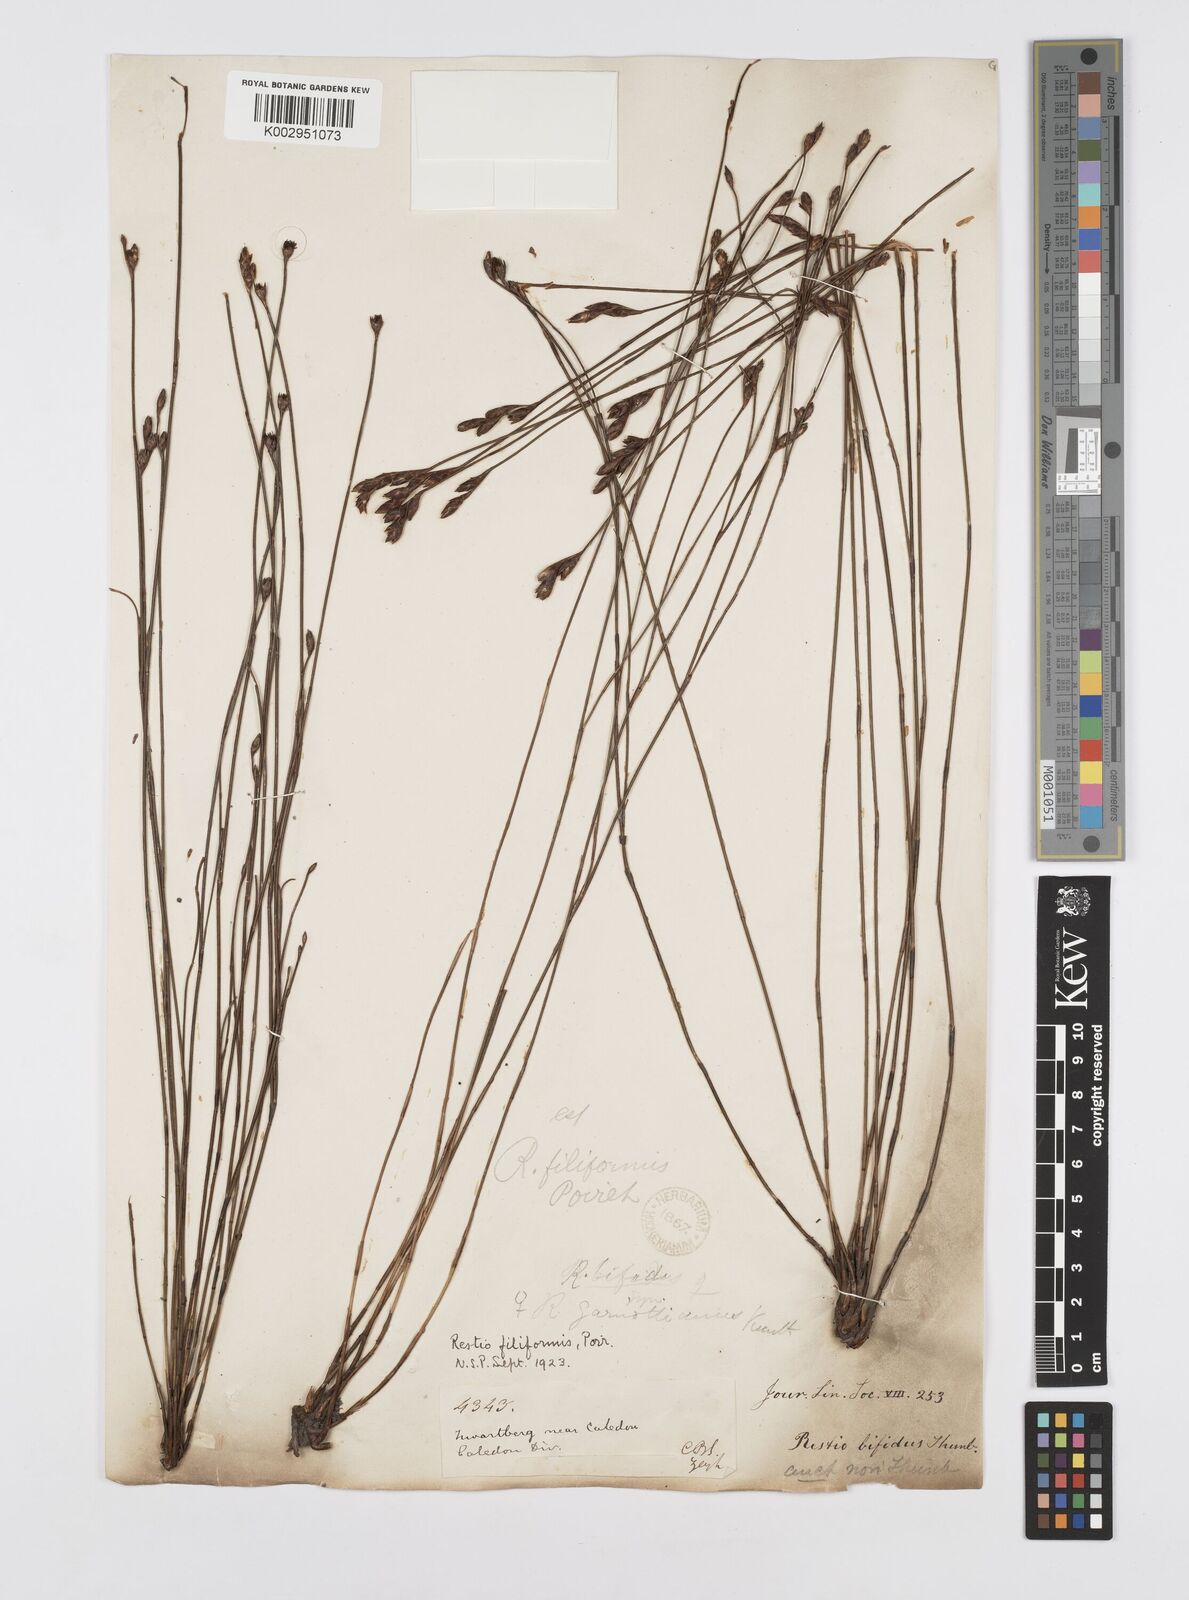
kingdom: Plantae
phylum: Tracheophyta
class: Liliopsida
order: Poales
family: Restionaceae
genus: Restio
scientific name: Restio filiformis
